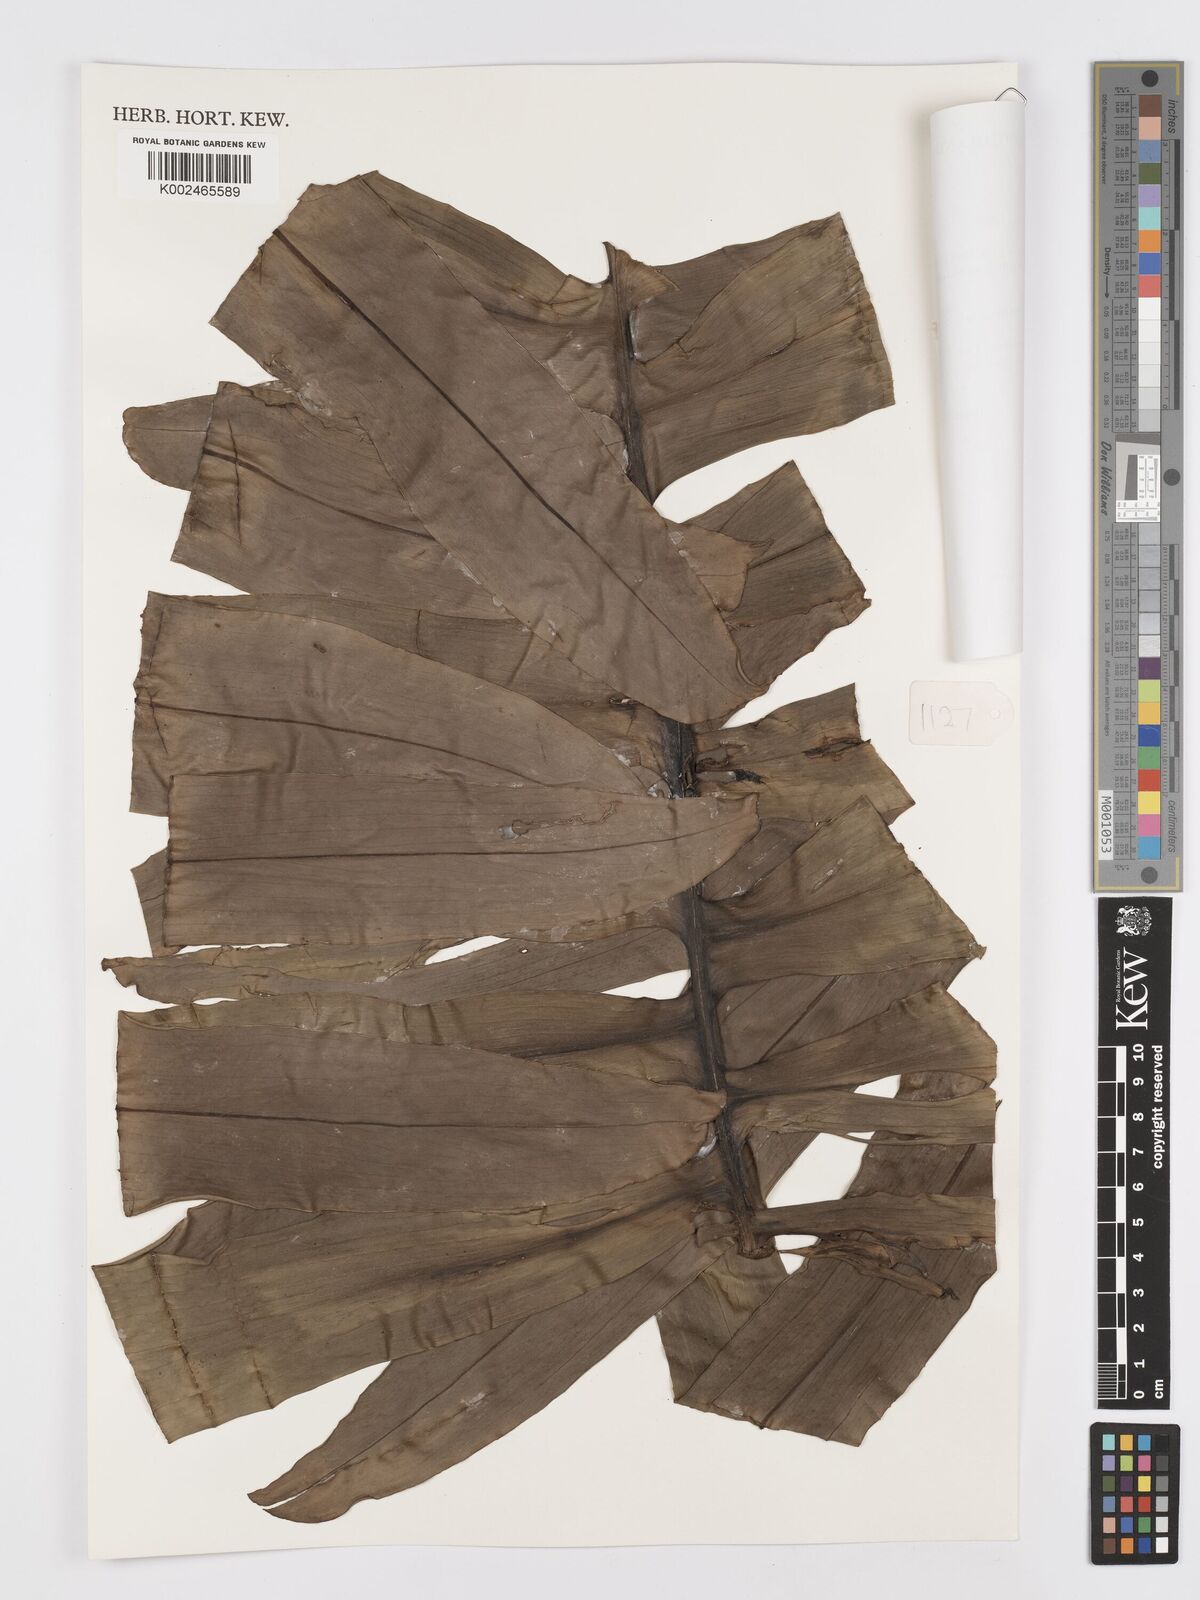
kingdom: Plantae
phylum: Tracheophyta
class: Liliopsida
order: Alismatales
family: Araceae
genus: Rhaphidophora
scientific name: Rhaphidophora decursiva
